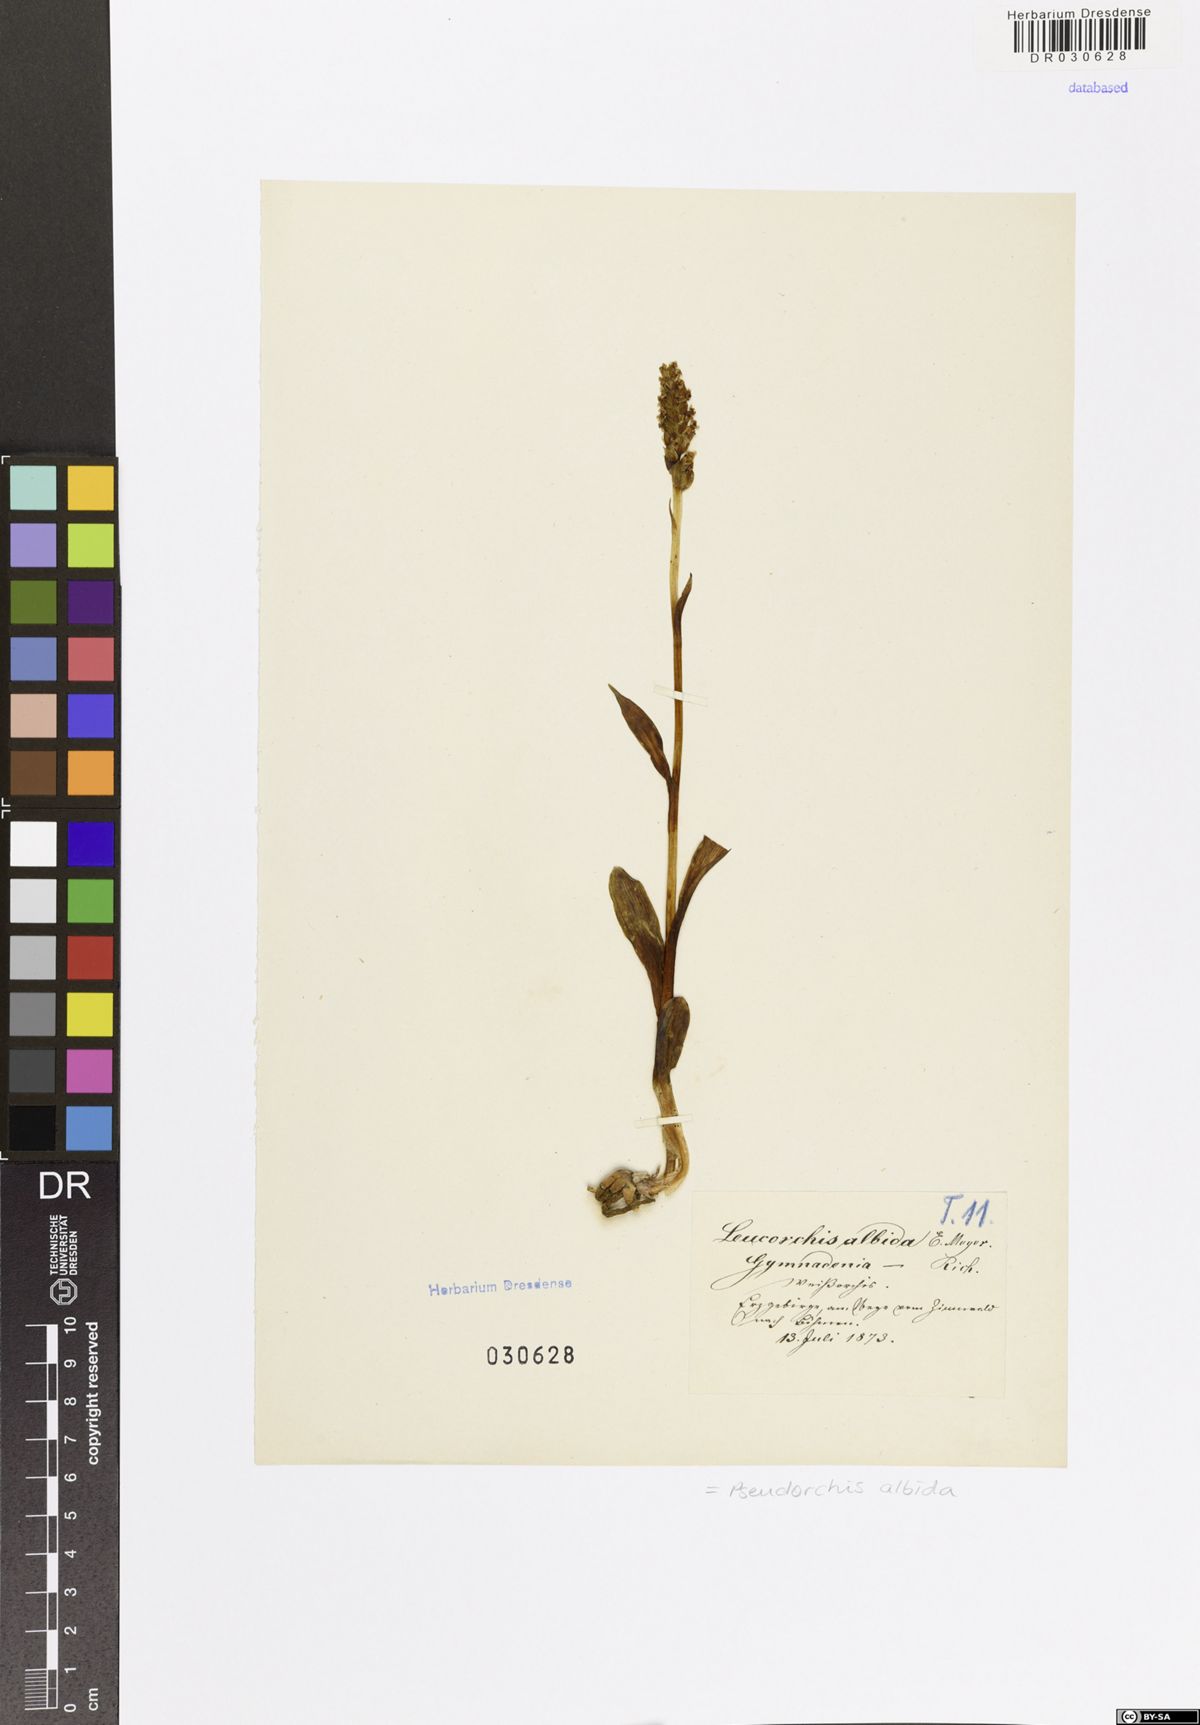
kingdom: Plantae
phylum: Tracheophyta
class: Liliopsida
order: Asparagales
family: Orchidaceae
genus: Pseudorchis
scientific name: Pseudorchis albida
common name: Small-white orchid
